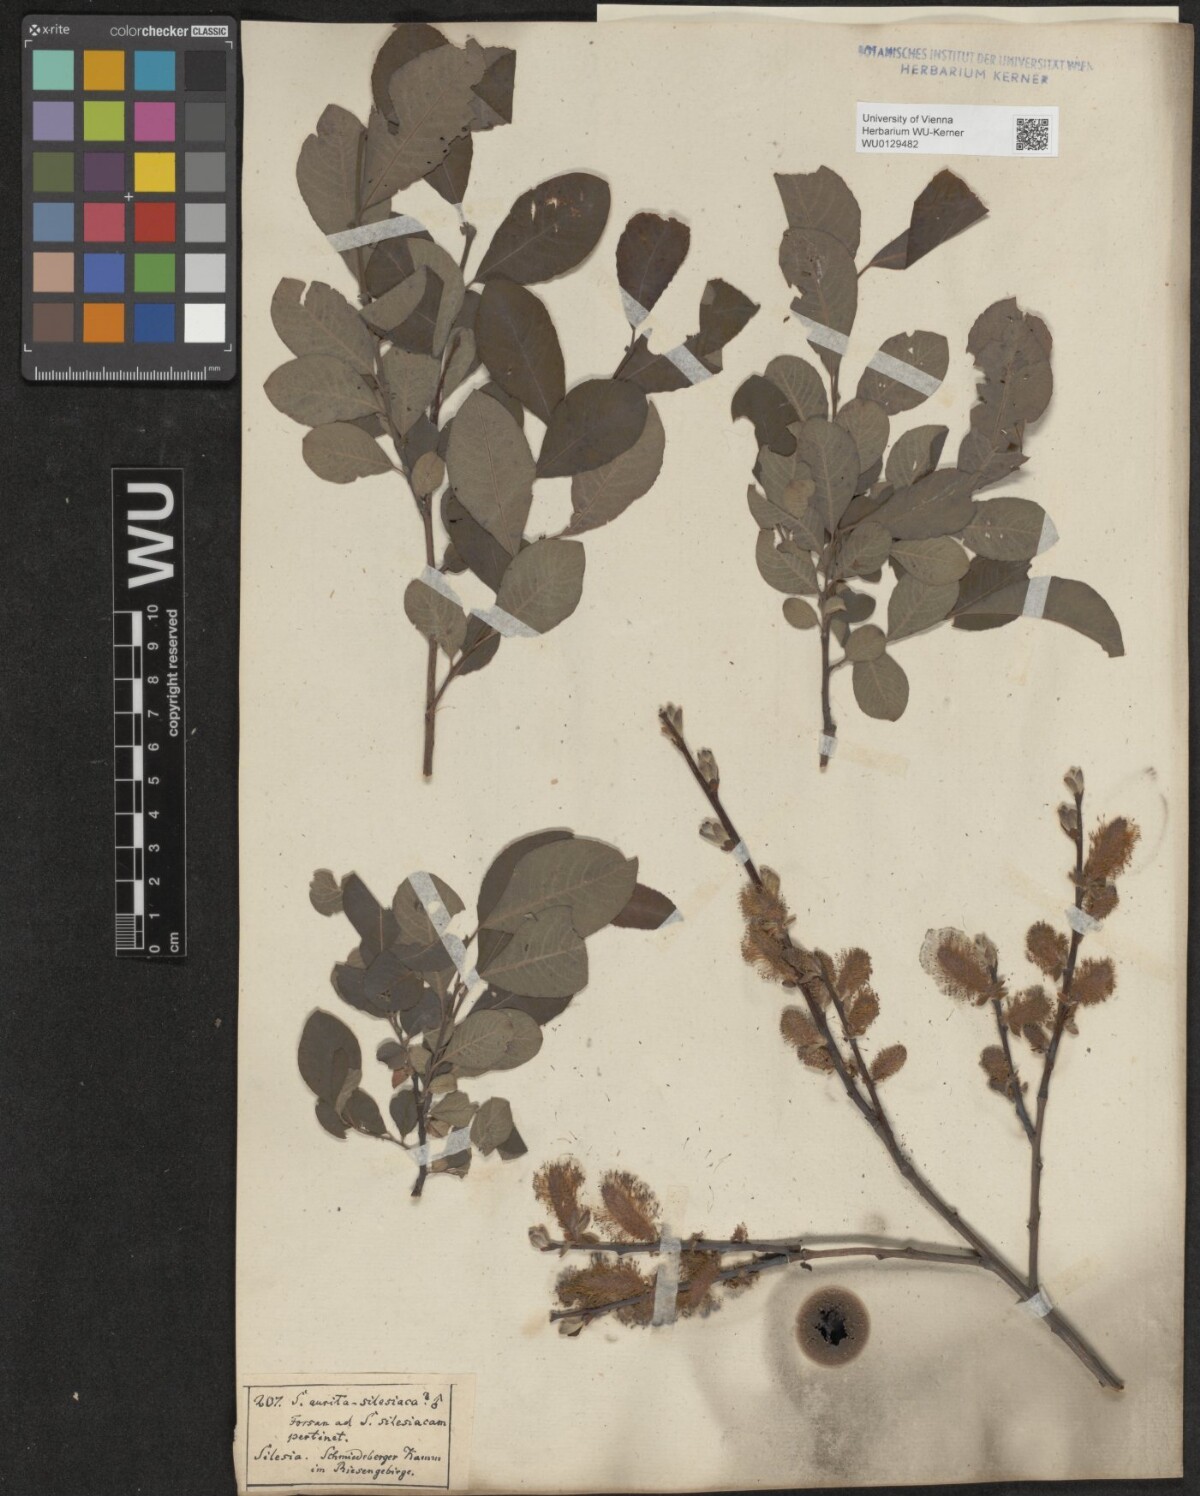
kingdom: Plantae
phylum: Tracheophyta
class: Magnoliopsida
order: Malpighiales
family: Salicaceae
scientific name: Salicaceae
